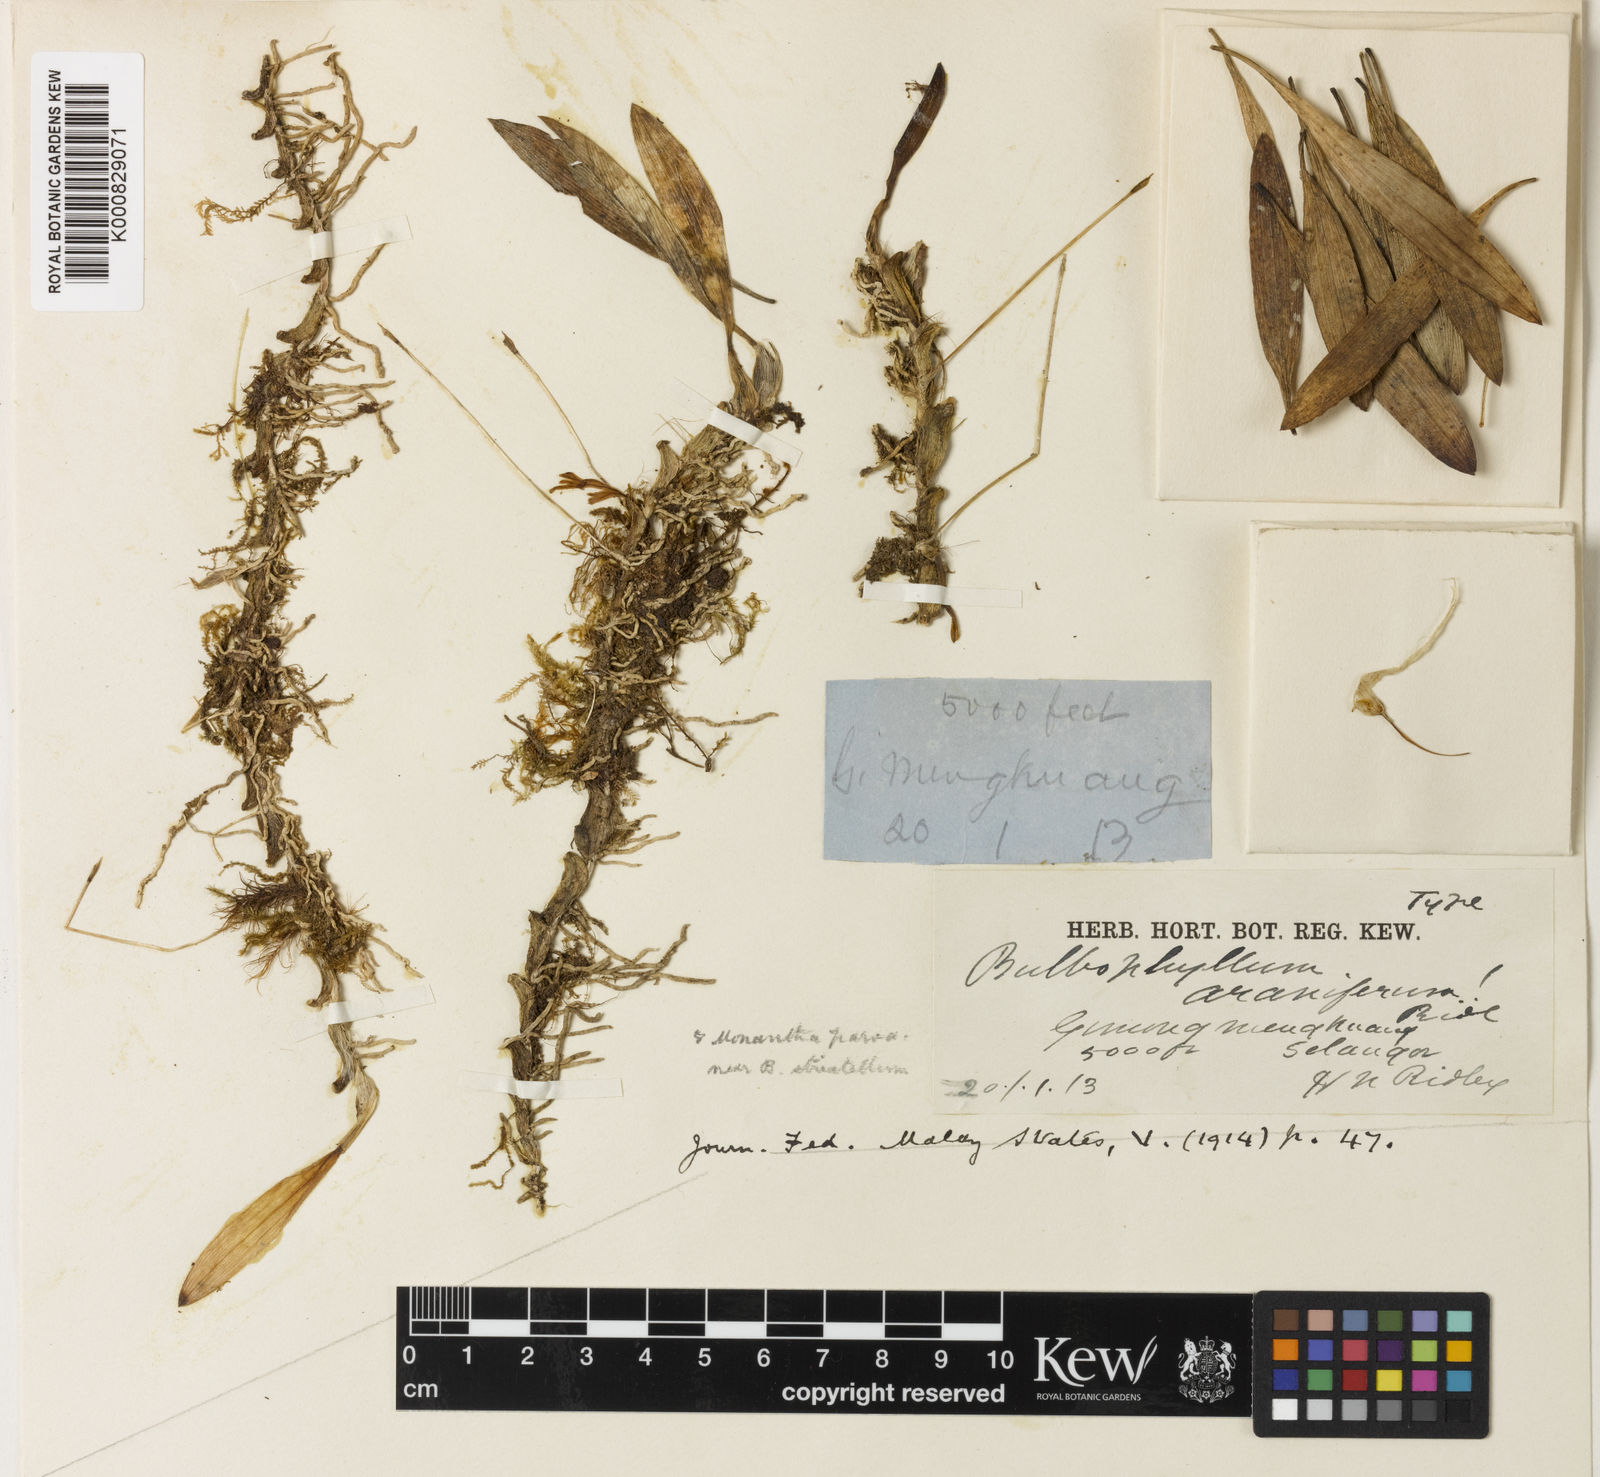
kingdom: Plantae
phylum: Tracheophyta
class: Liliopsida
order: Asparagales
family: Orchidaceae
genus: Bulbophyllum
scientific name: Bulbophyllum stormii
